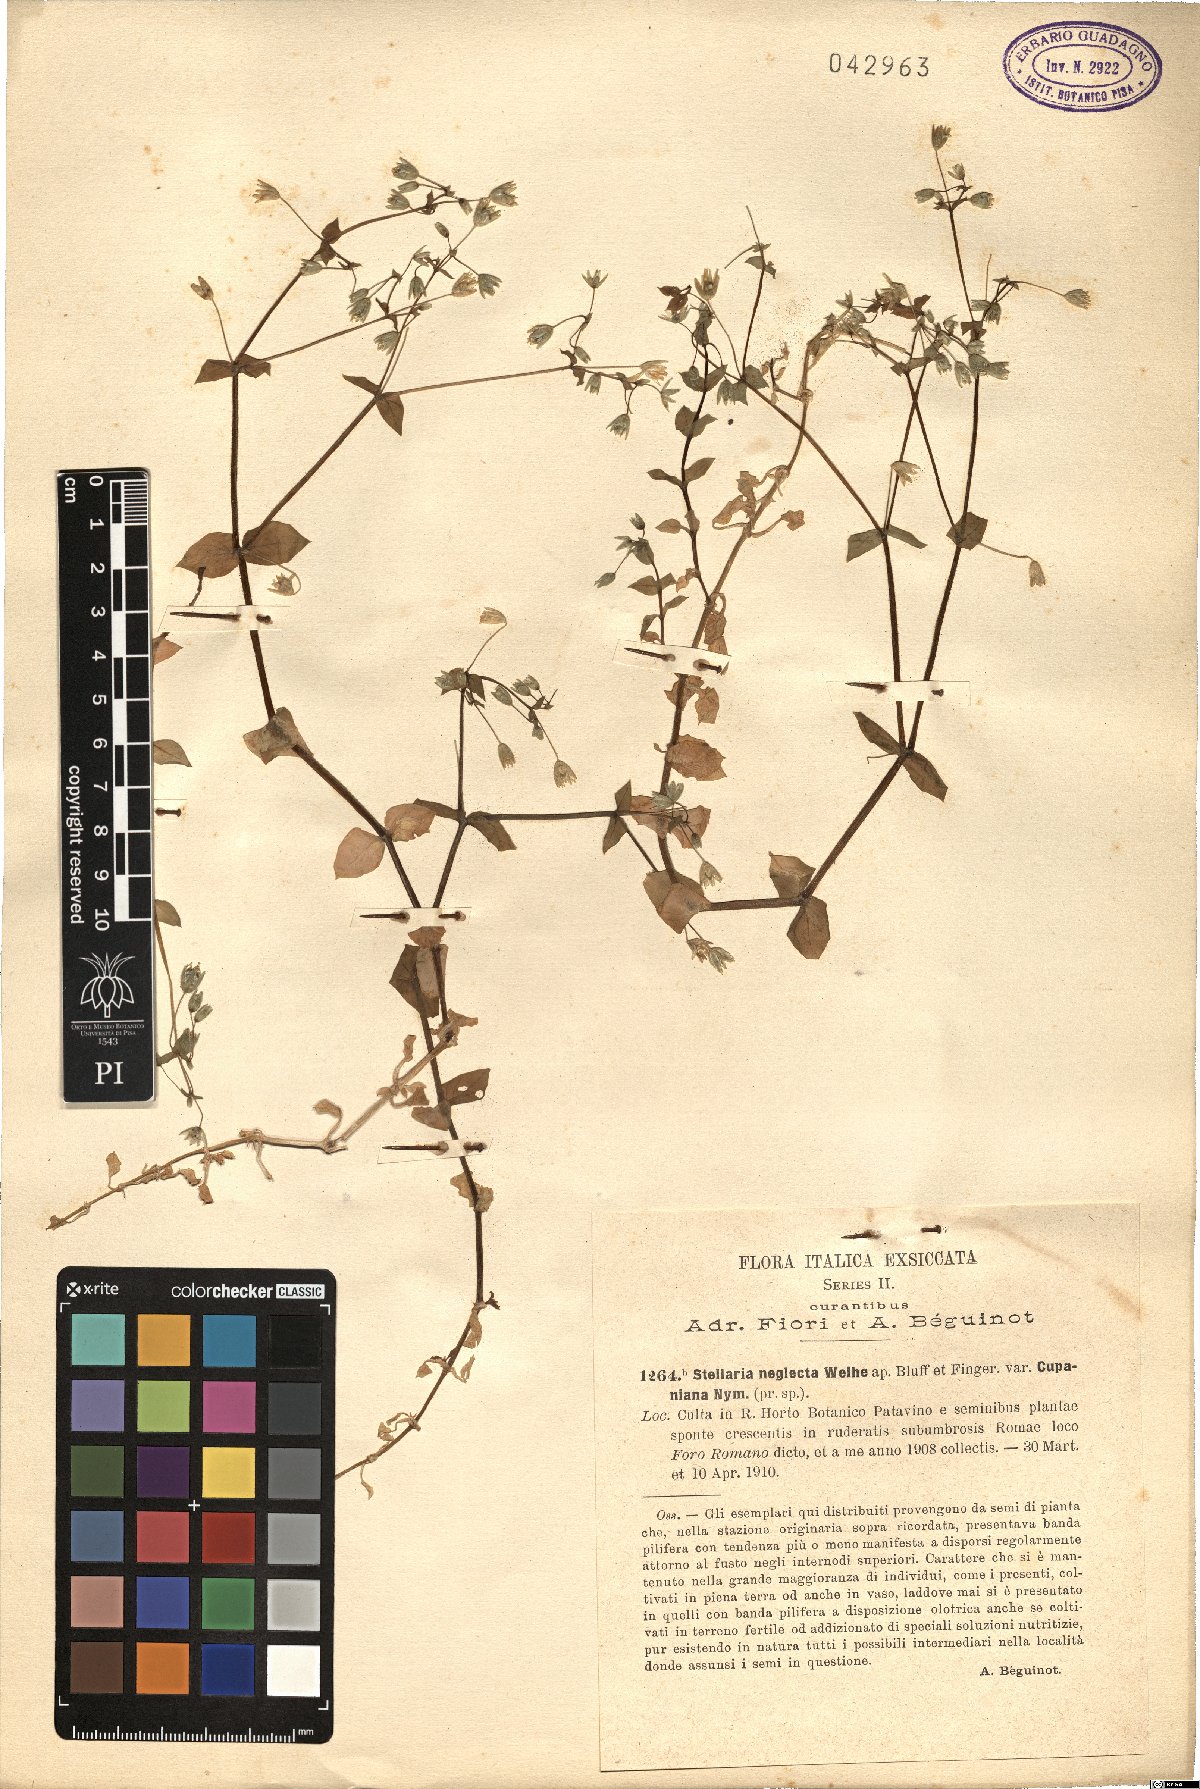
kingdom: Plantae
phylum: Tracheophyta
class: Magnoliopsida
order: Caryophyllales
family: Caryophyllaceae
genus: Stellaria
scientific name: Stellaria neglecta
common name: Greater chickweed
